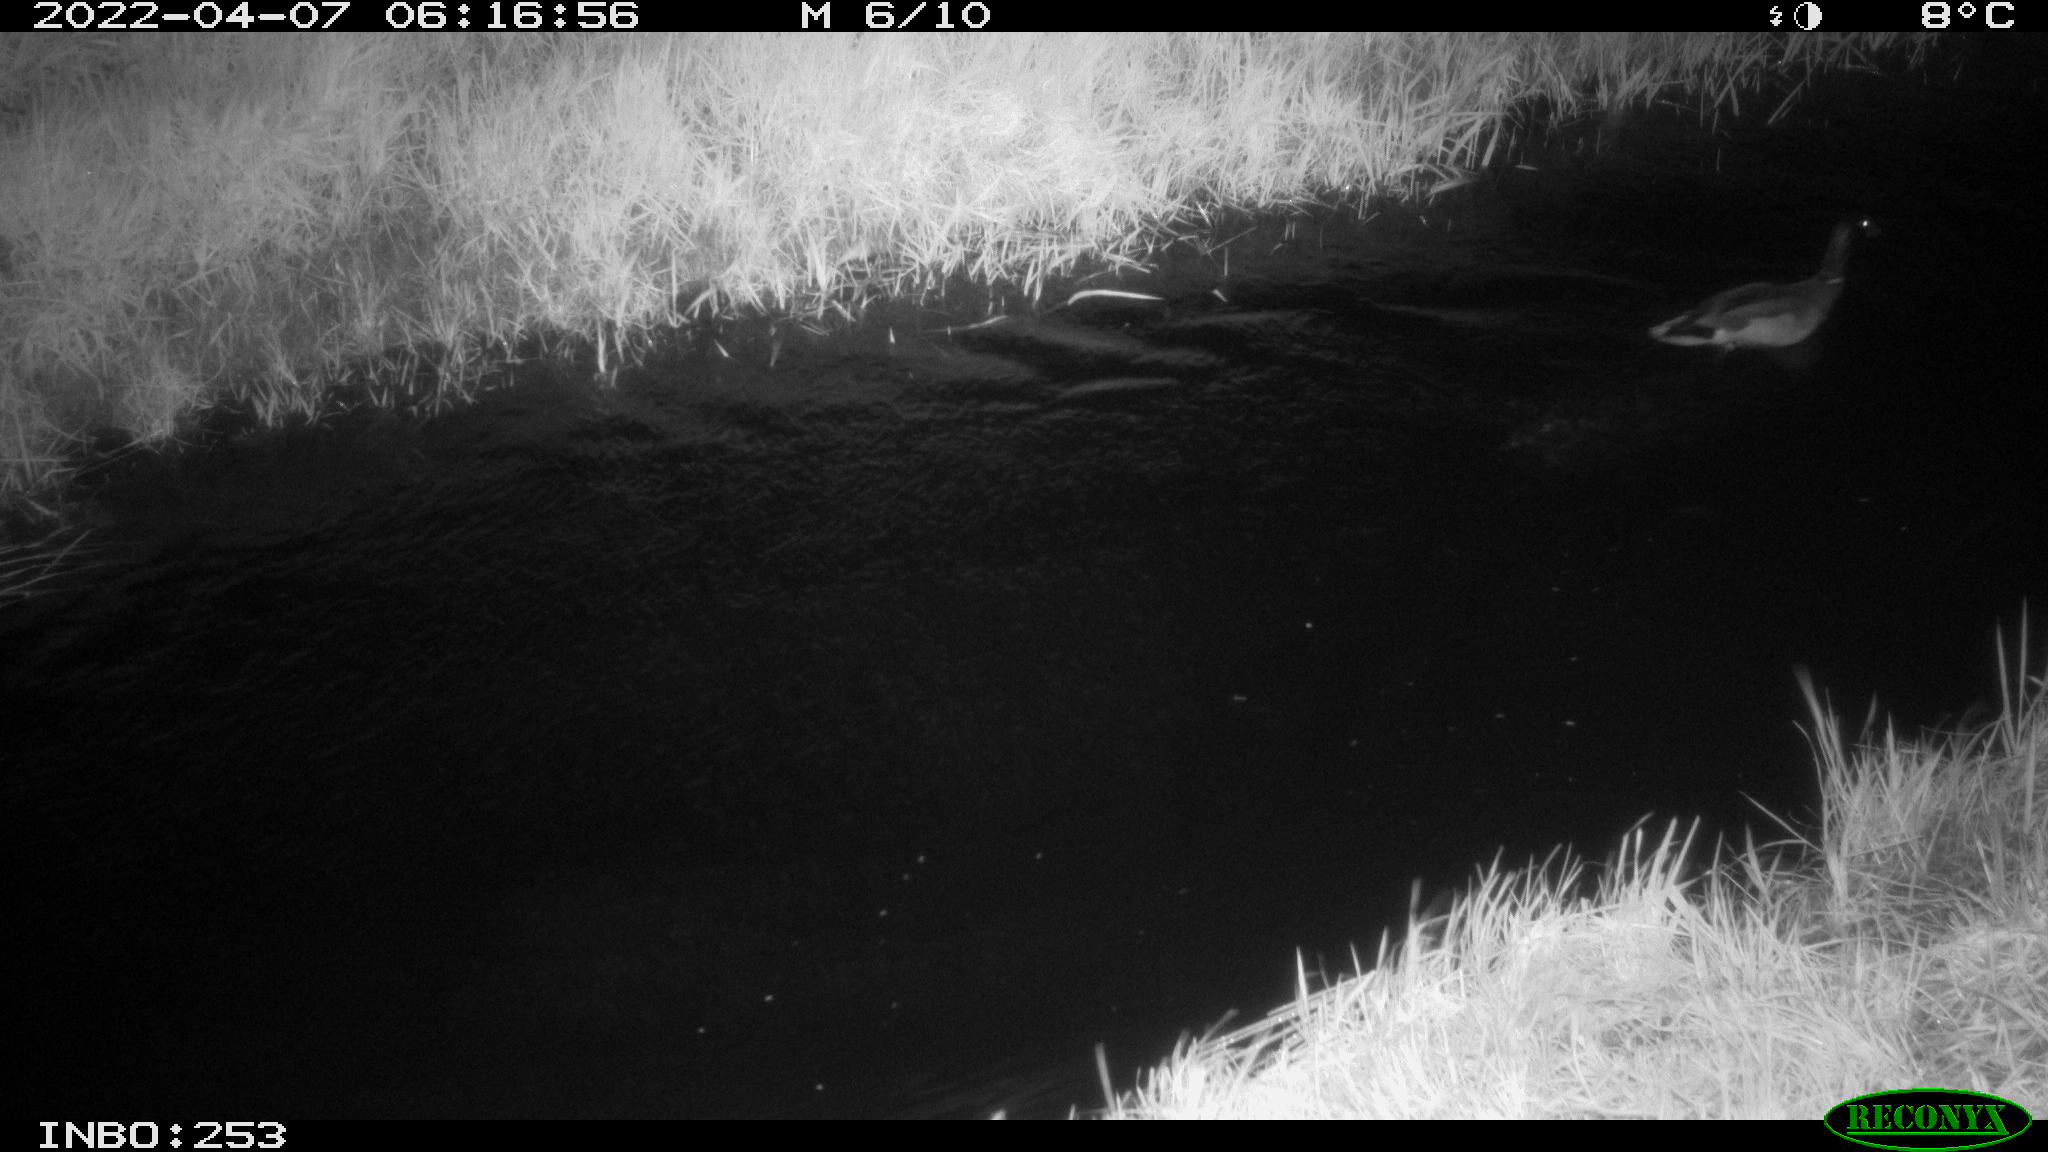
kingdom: Animalia
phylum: Chordata
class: Aves
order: Anseriformes
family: Anatidae
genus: Anas
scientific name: Anas platyrhynchos
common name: Mallard
